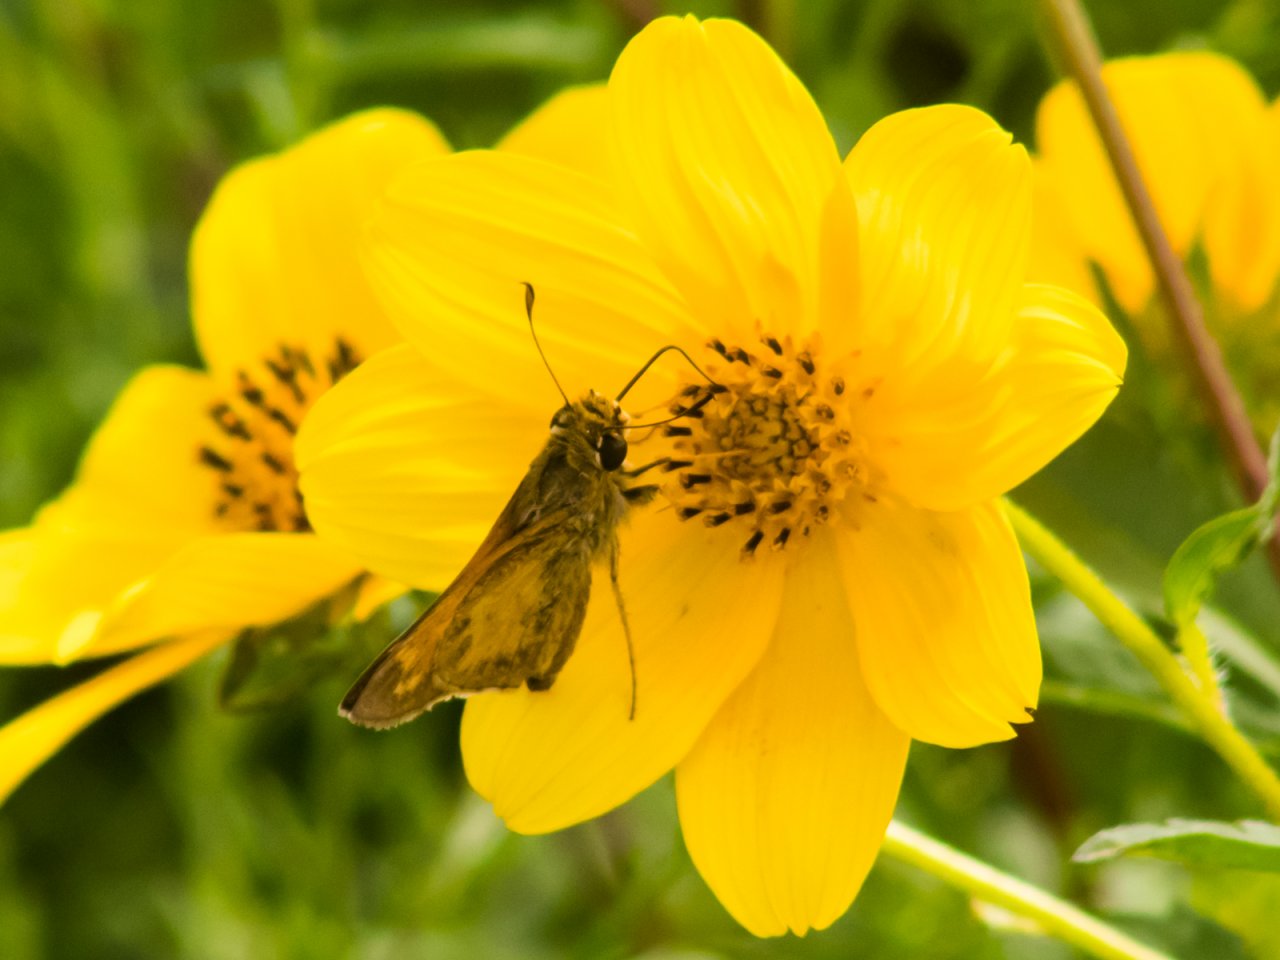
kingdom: Animalia
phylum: Arthropoda
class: Insecta
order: Lepidoptera
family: Hesperiidae
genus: Atalopedes
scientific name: Atalopedes campestris
